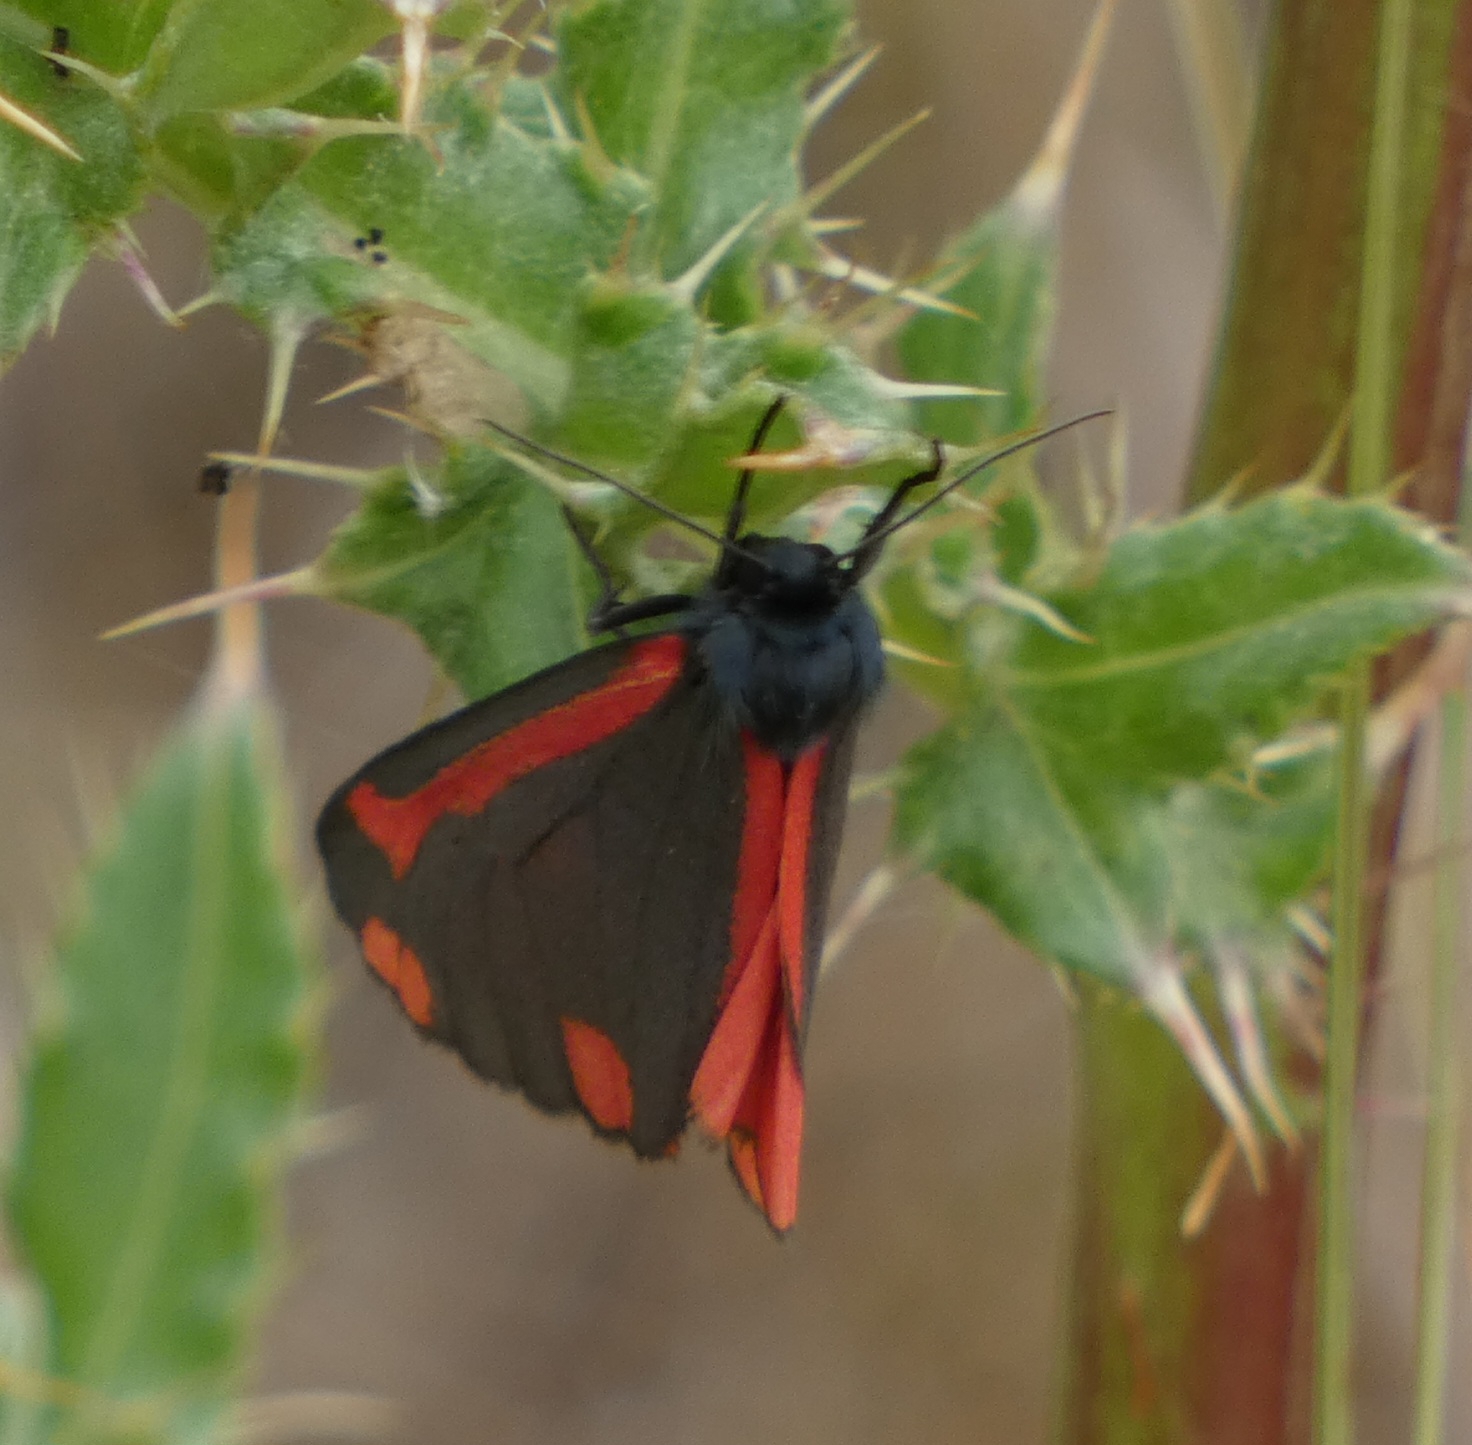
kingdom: Animalia
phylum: Arthropoda
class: Insecta
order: Lepidoptera
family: Erebidae
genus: Tyria
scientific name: Tyria jacobaeae
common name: Blodplet
